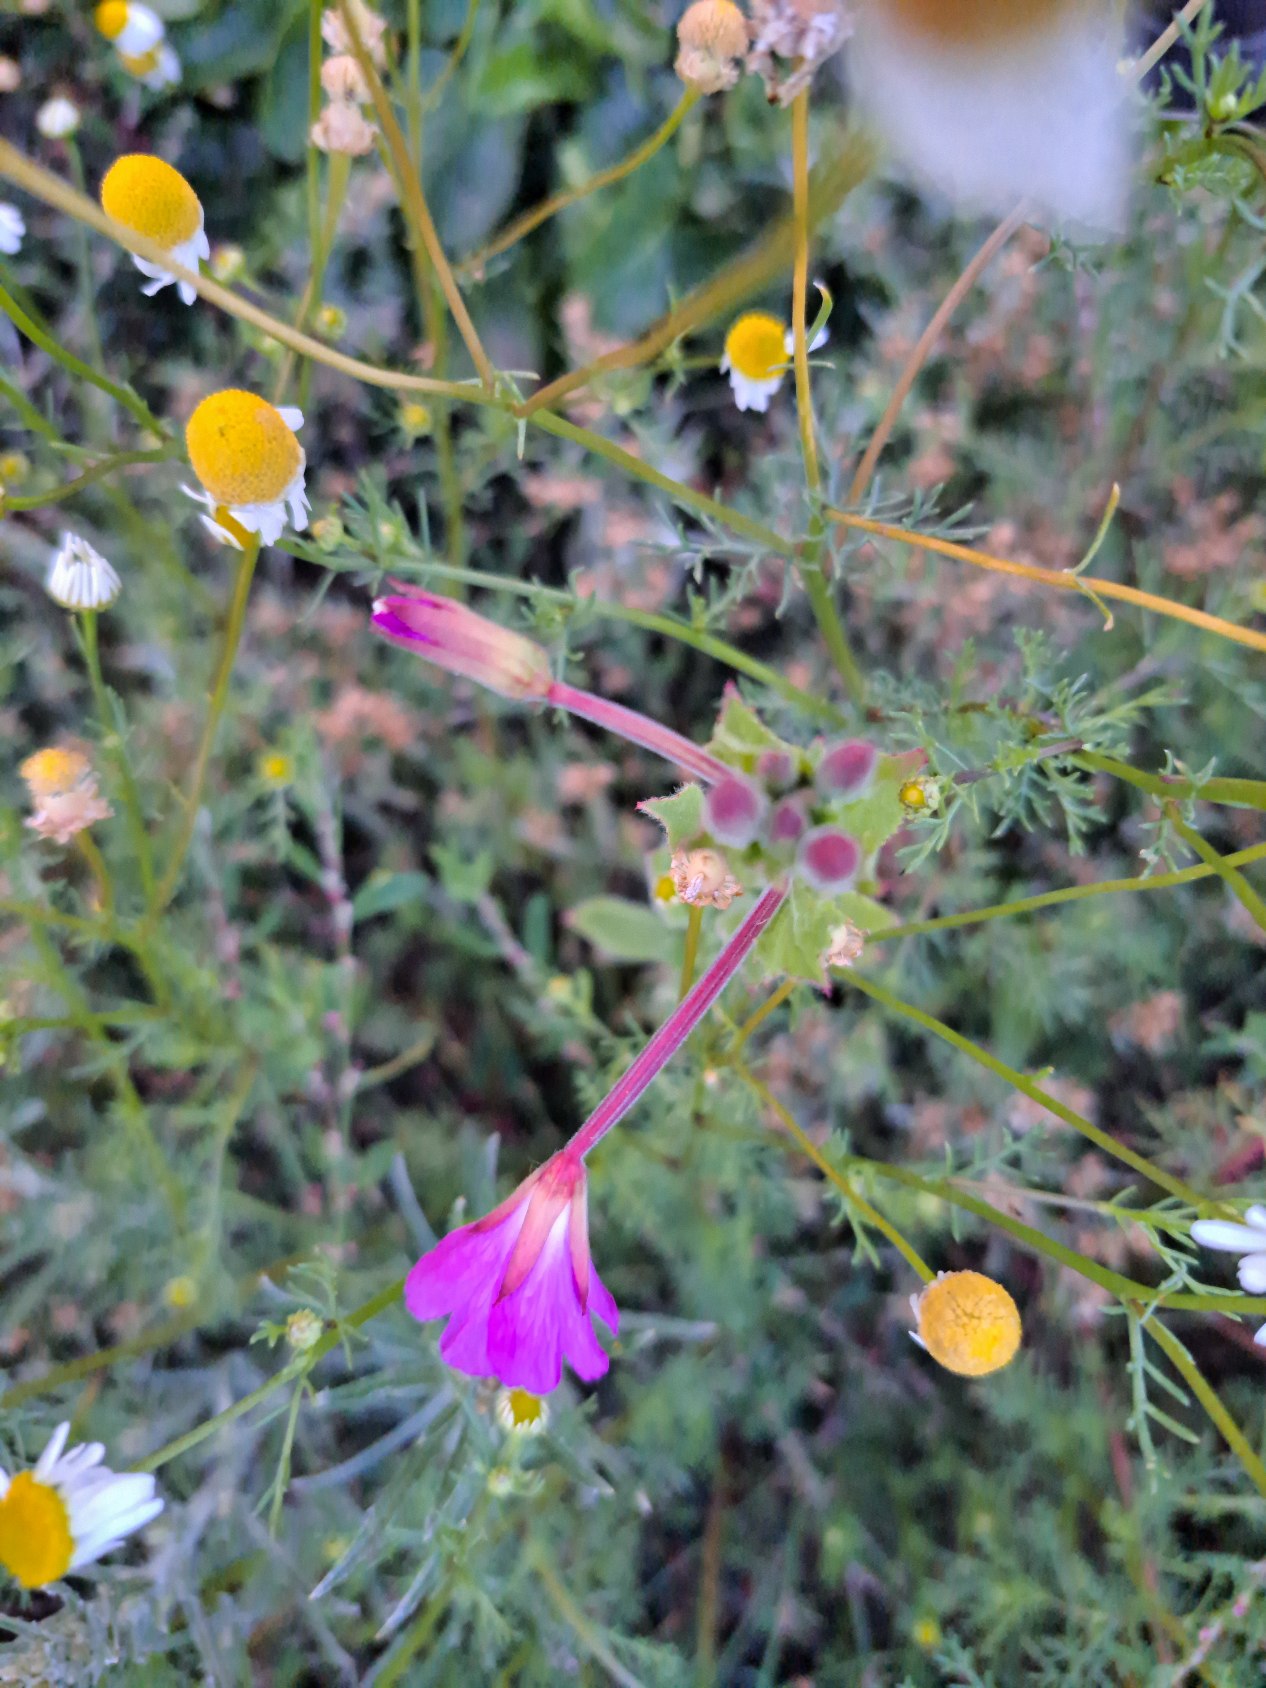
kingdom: Plantae
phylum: Tracheophyta
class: Magnoliopsida
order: Myrtales
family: Onagraceae
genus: Epilobium
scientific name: Epilobium hirsutum
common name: Lådden dueurt
